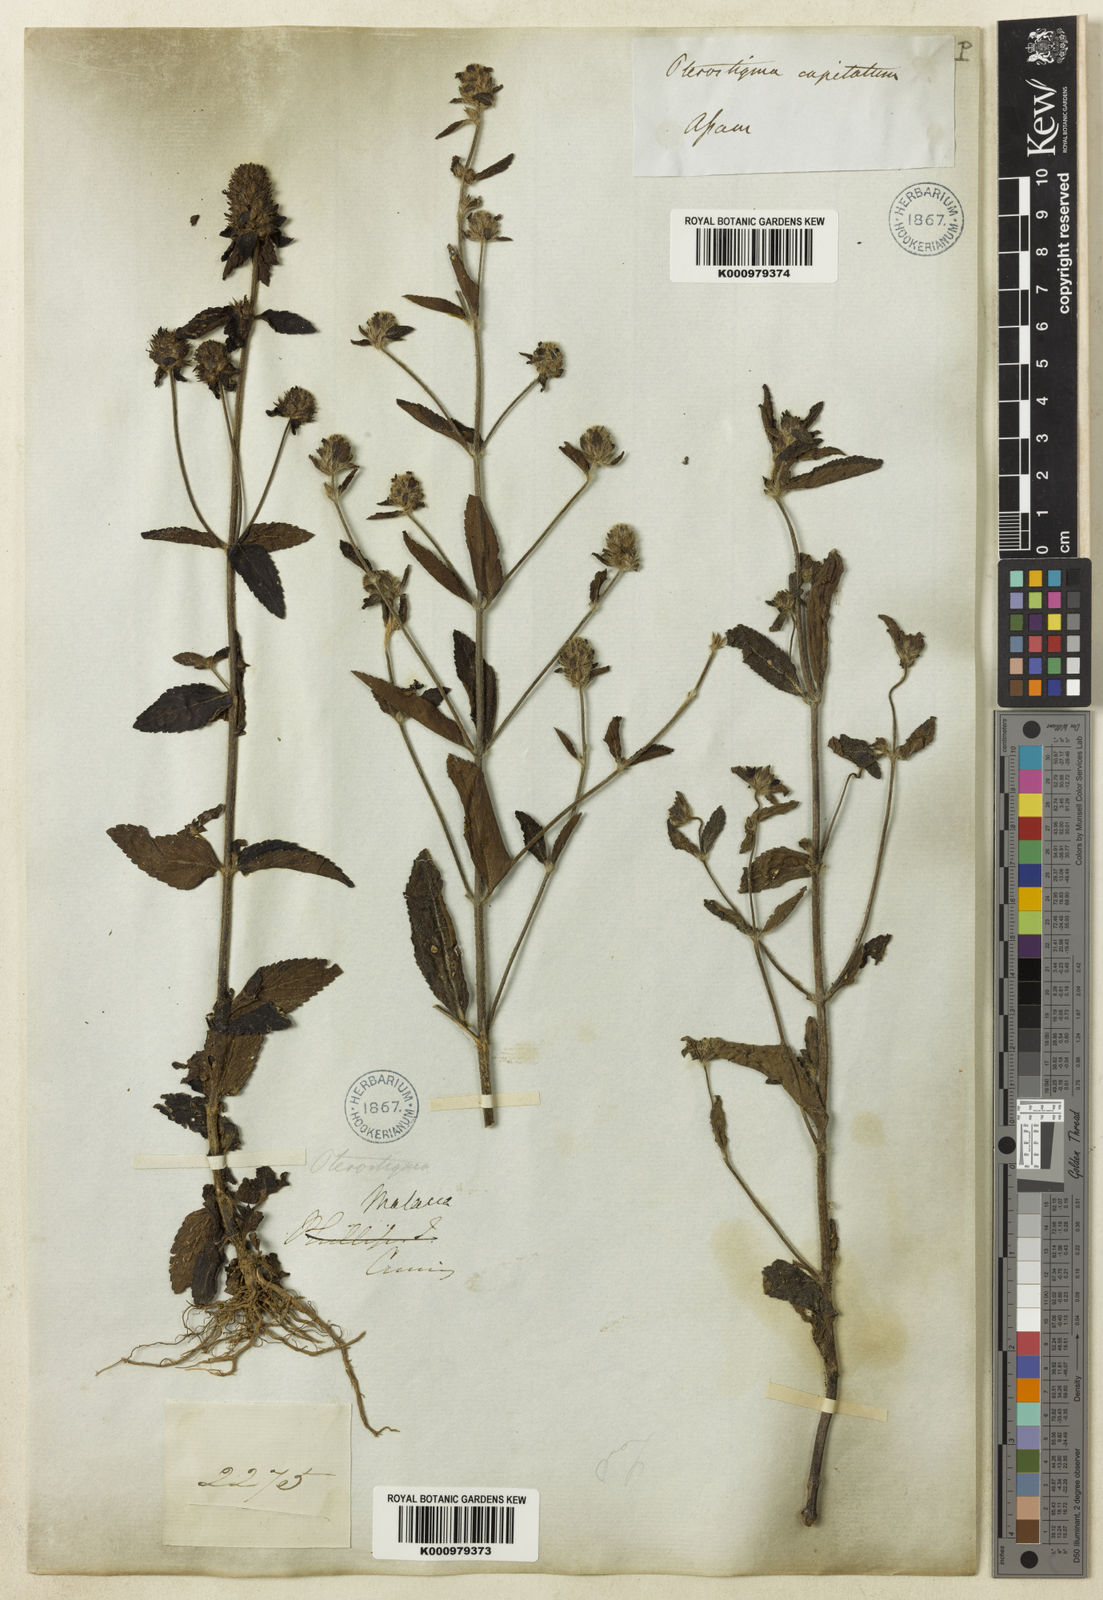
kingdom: Plantae
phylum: Tracheophyta
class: Magnoliopsida
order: Lamiales
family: Plantaginaceae
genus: Adenosma
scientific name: Adenosma indiana
